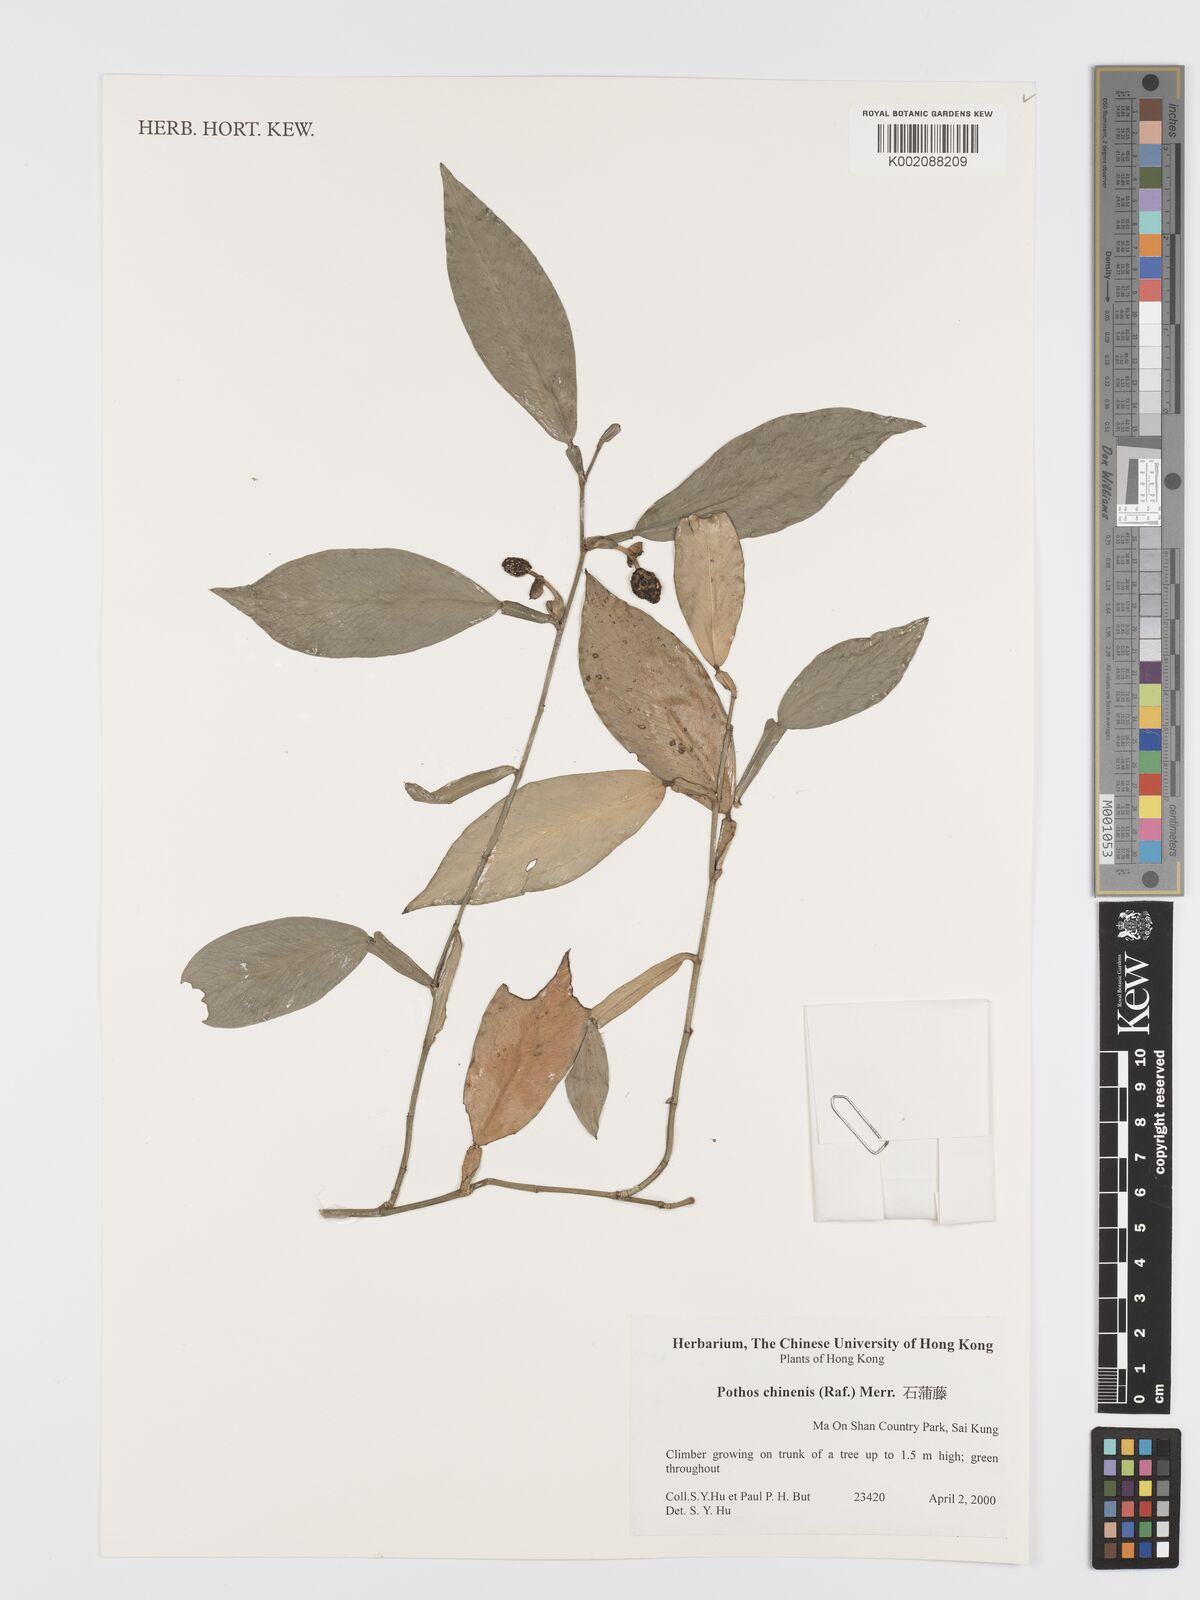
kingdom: Plantae
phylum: Tracheophyta
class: Liliopsida
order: Alismatales
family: Araceae
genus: Pothos
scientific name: Pothos chinensis
